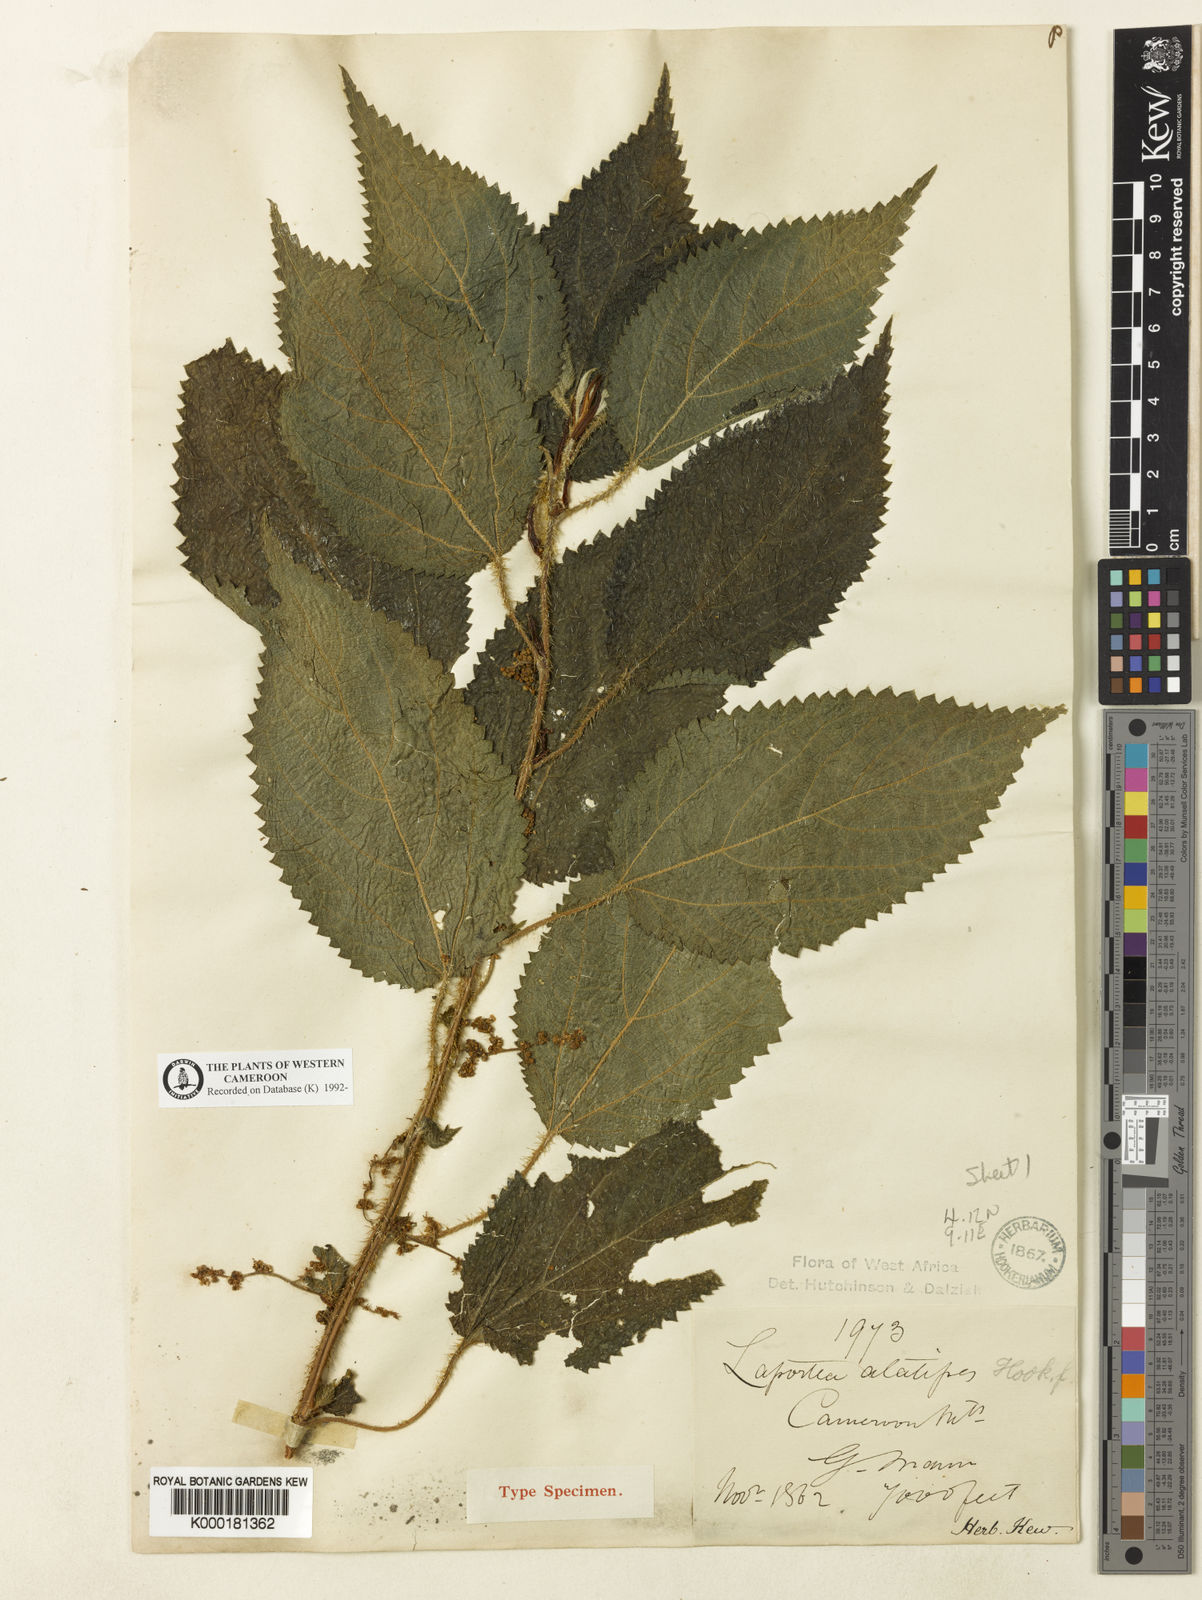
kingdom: Plantae
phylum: Tracheophyta
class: Magnoliopsida
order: Rosales
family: Urticaceae
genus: Laportea
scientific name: Laportea alatipes
